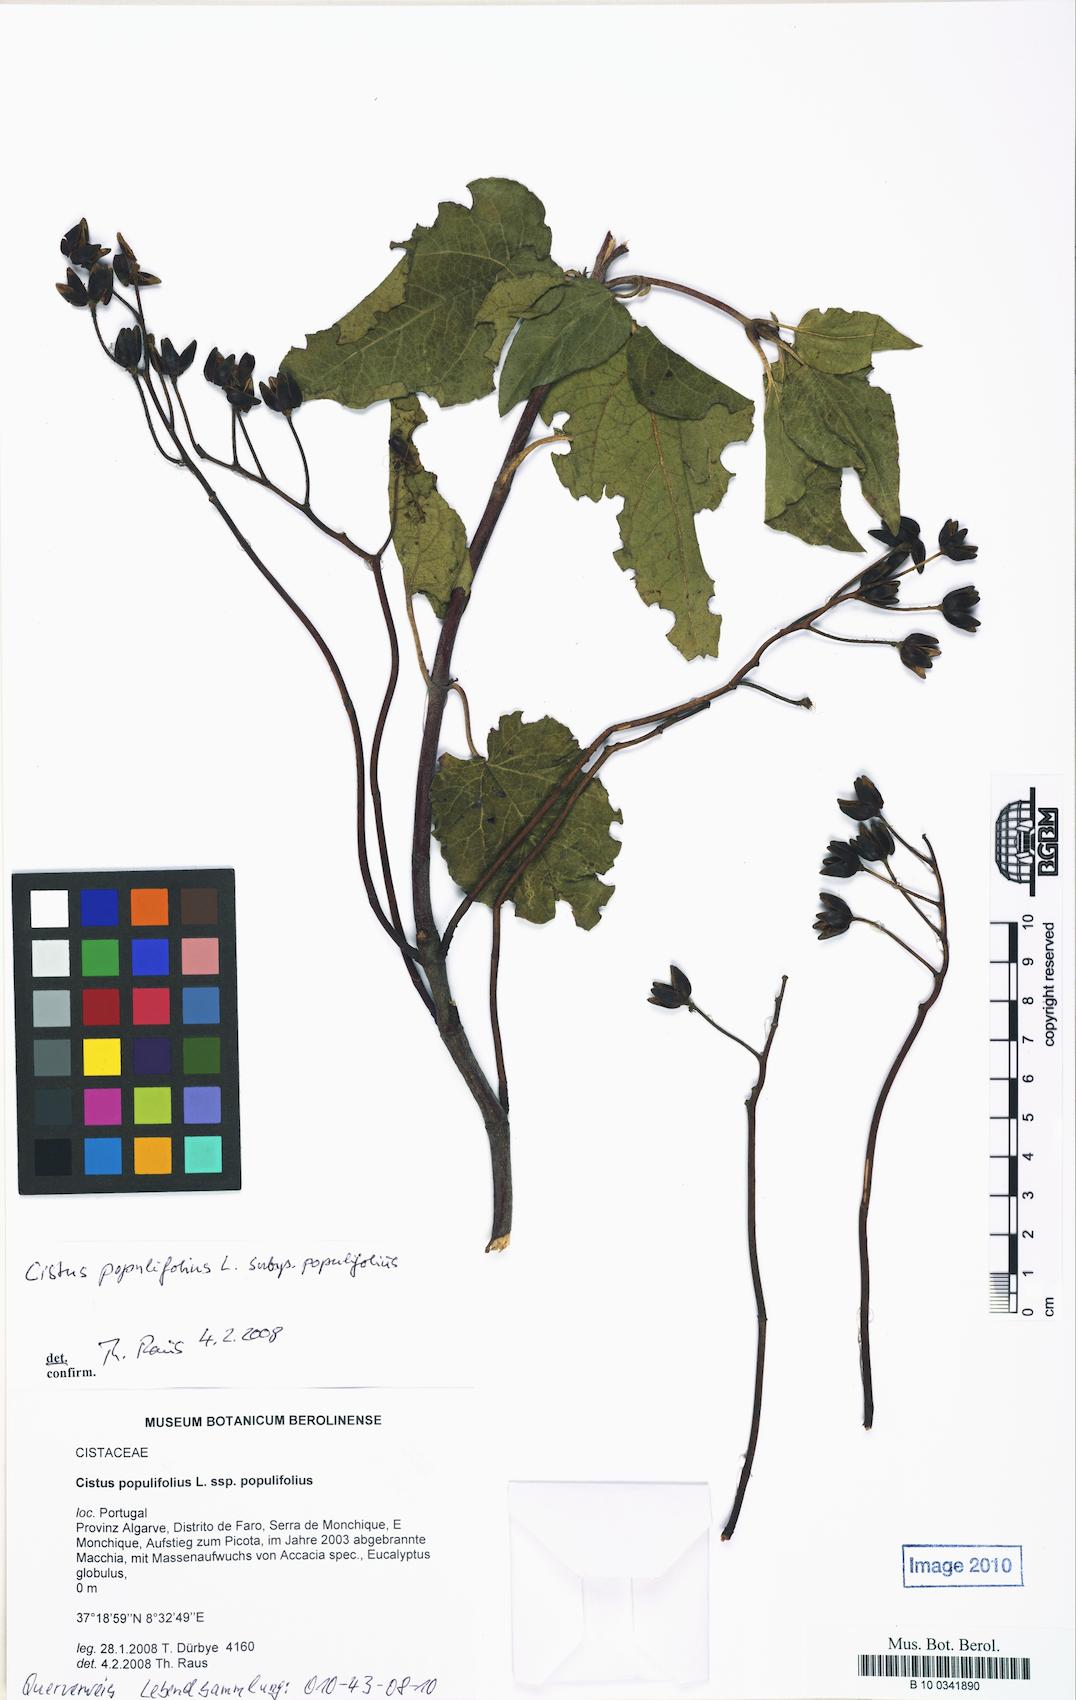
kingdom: Plantae
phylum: Tracheophyta
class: Magnoliopsida
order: Malvales
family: Cistaceae
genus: Cistus
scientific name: Cistus populifolius
